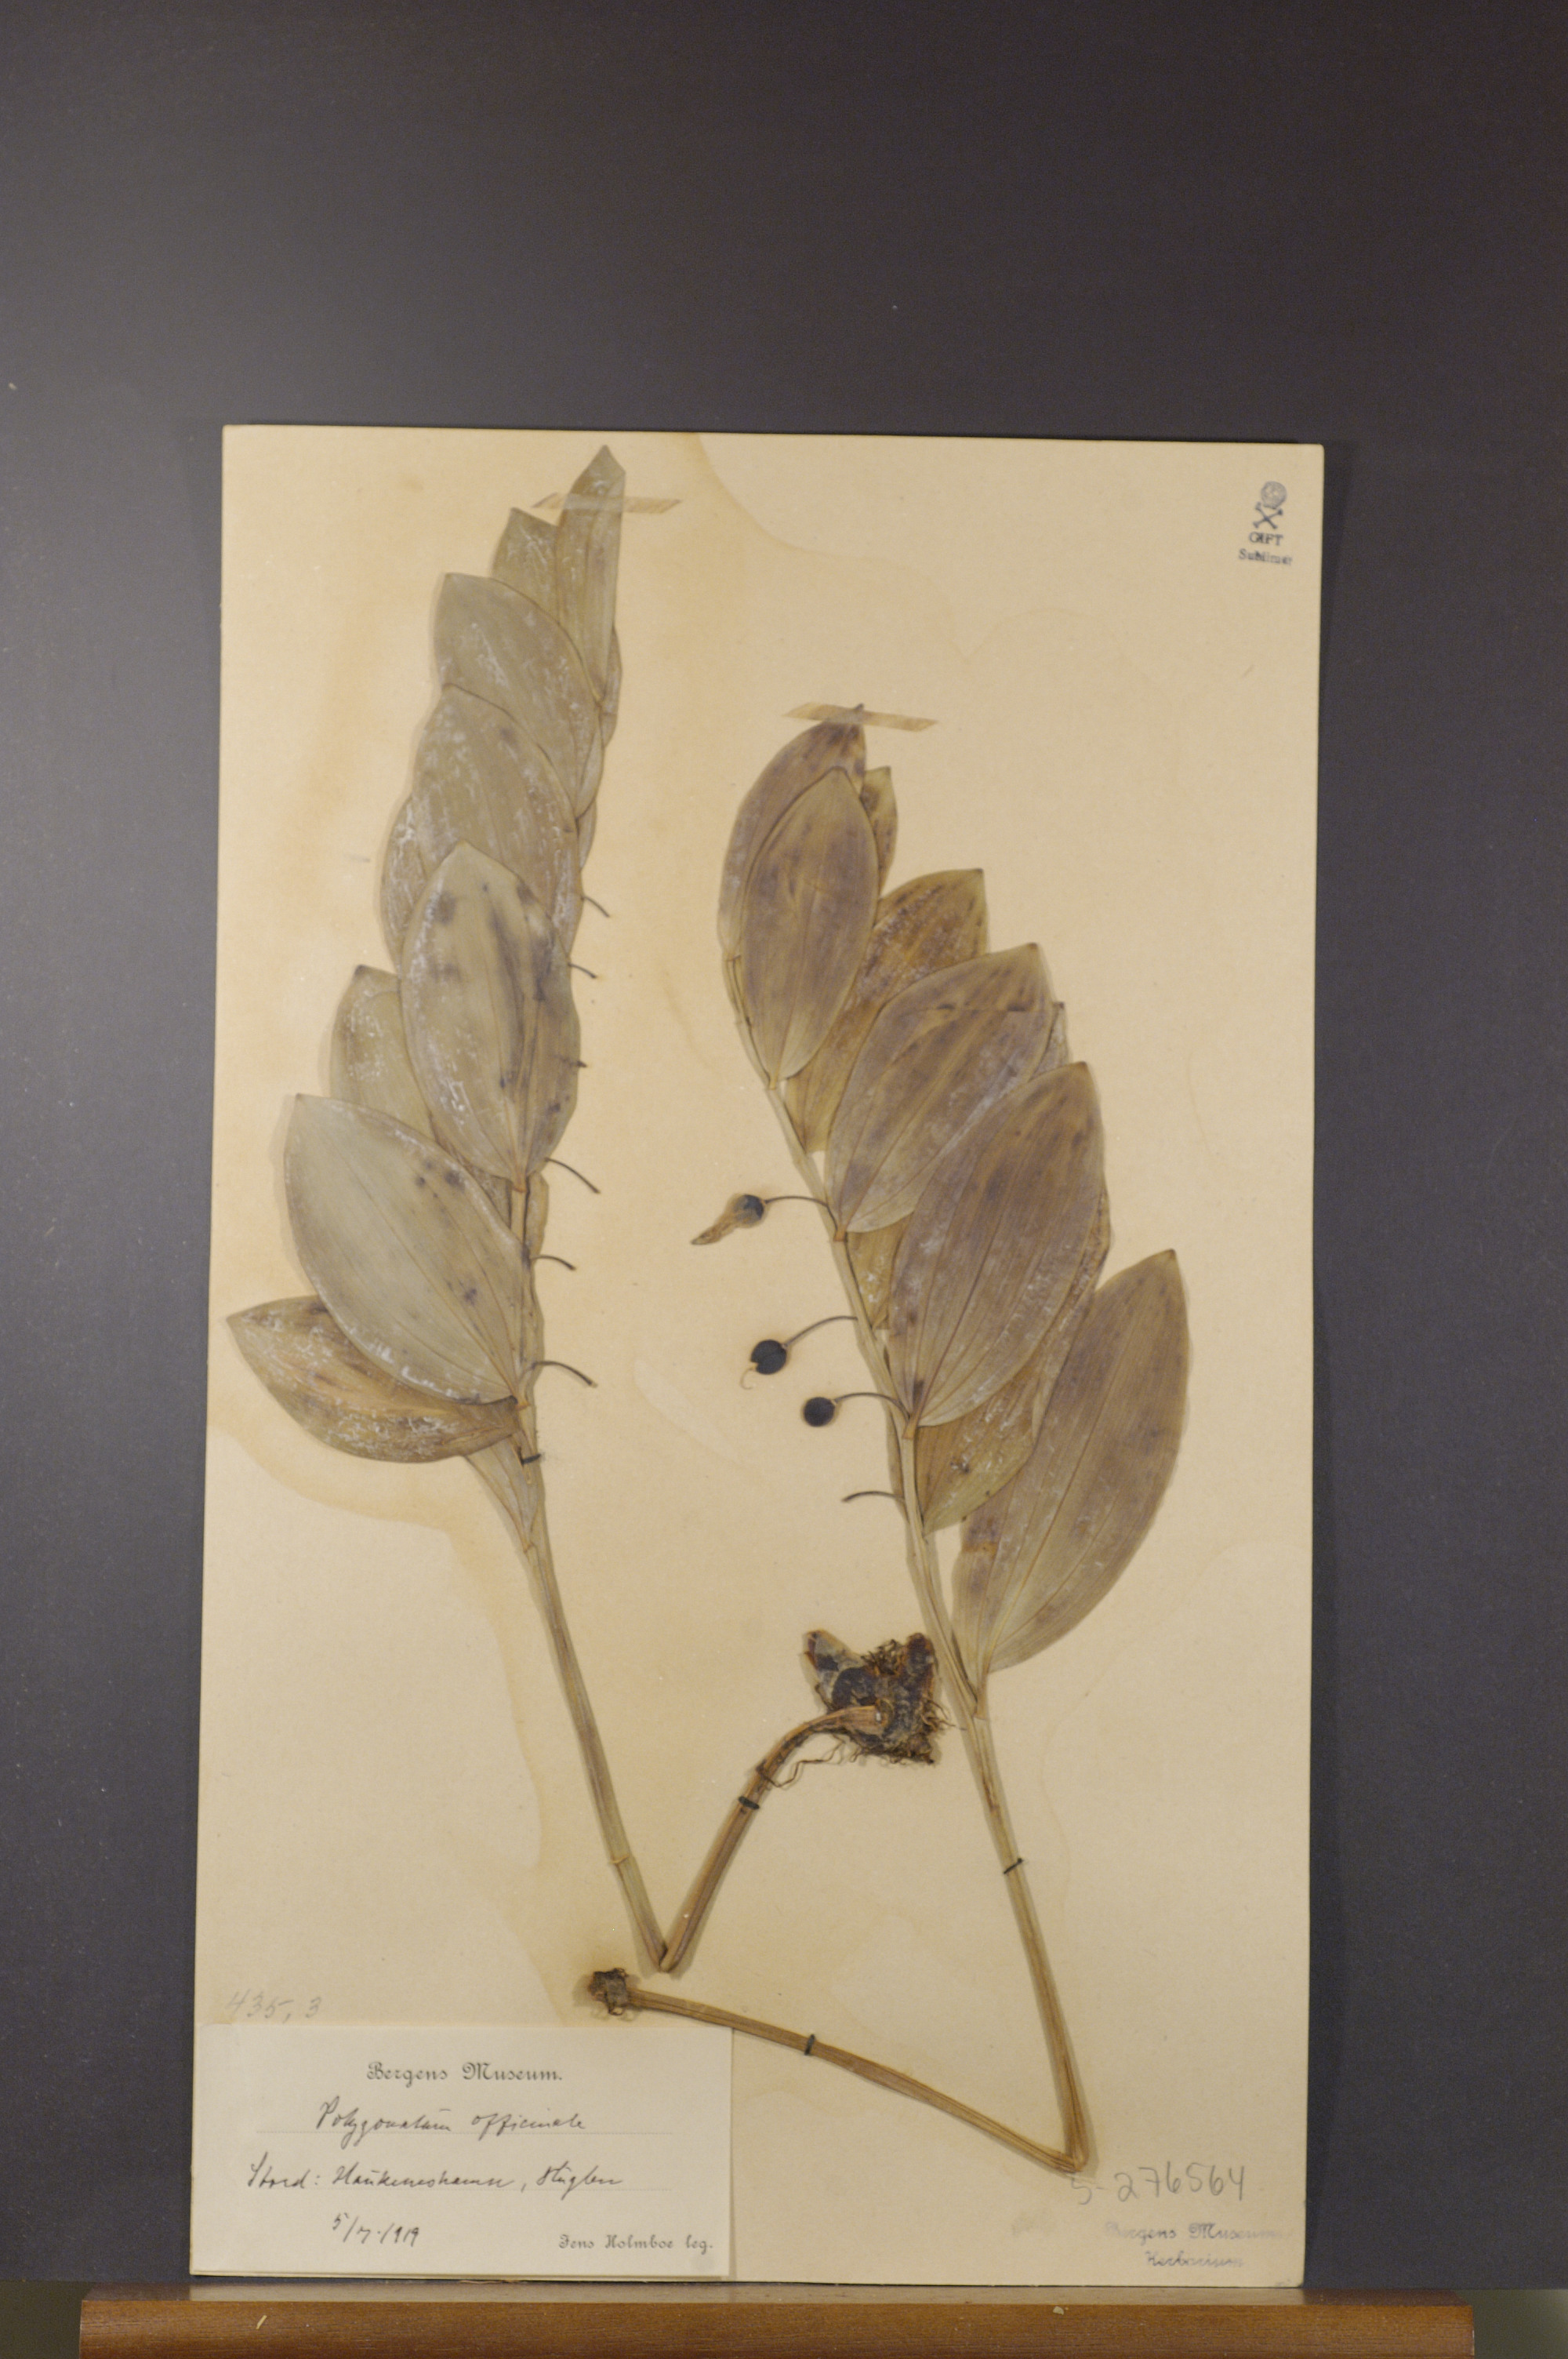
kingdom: Plantae
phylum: Tracheophyta
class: Liliopsida
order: Asparagales
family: Asparagaceae
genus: Polygonatum
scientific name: Polygonatum odoratum
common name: Angular solomon's-seal
